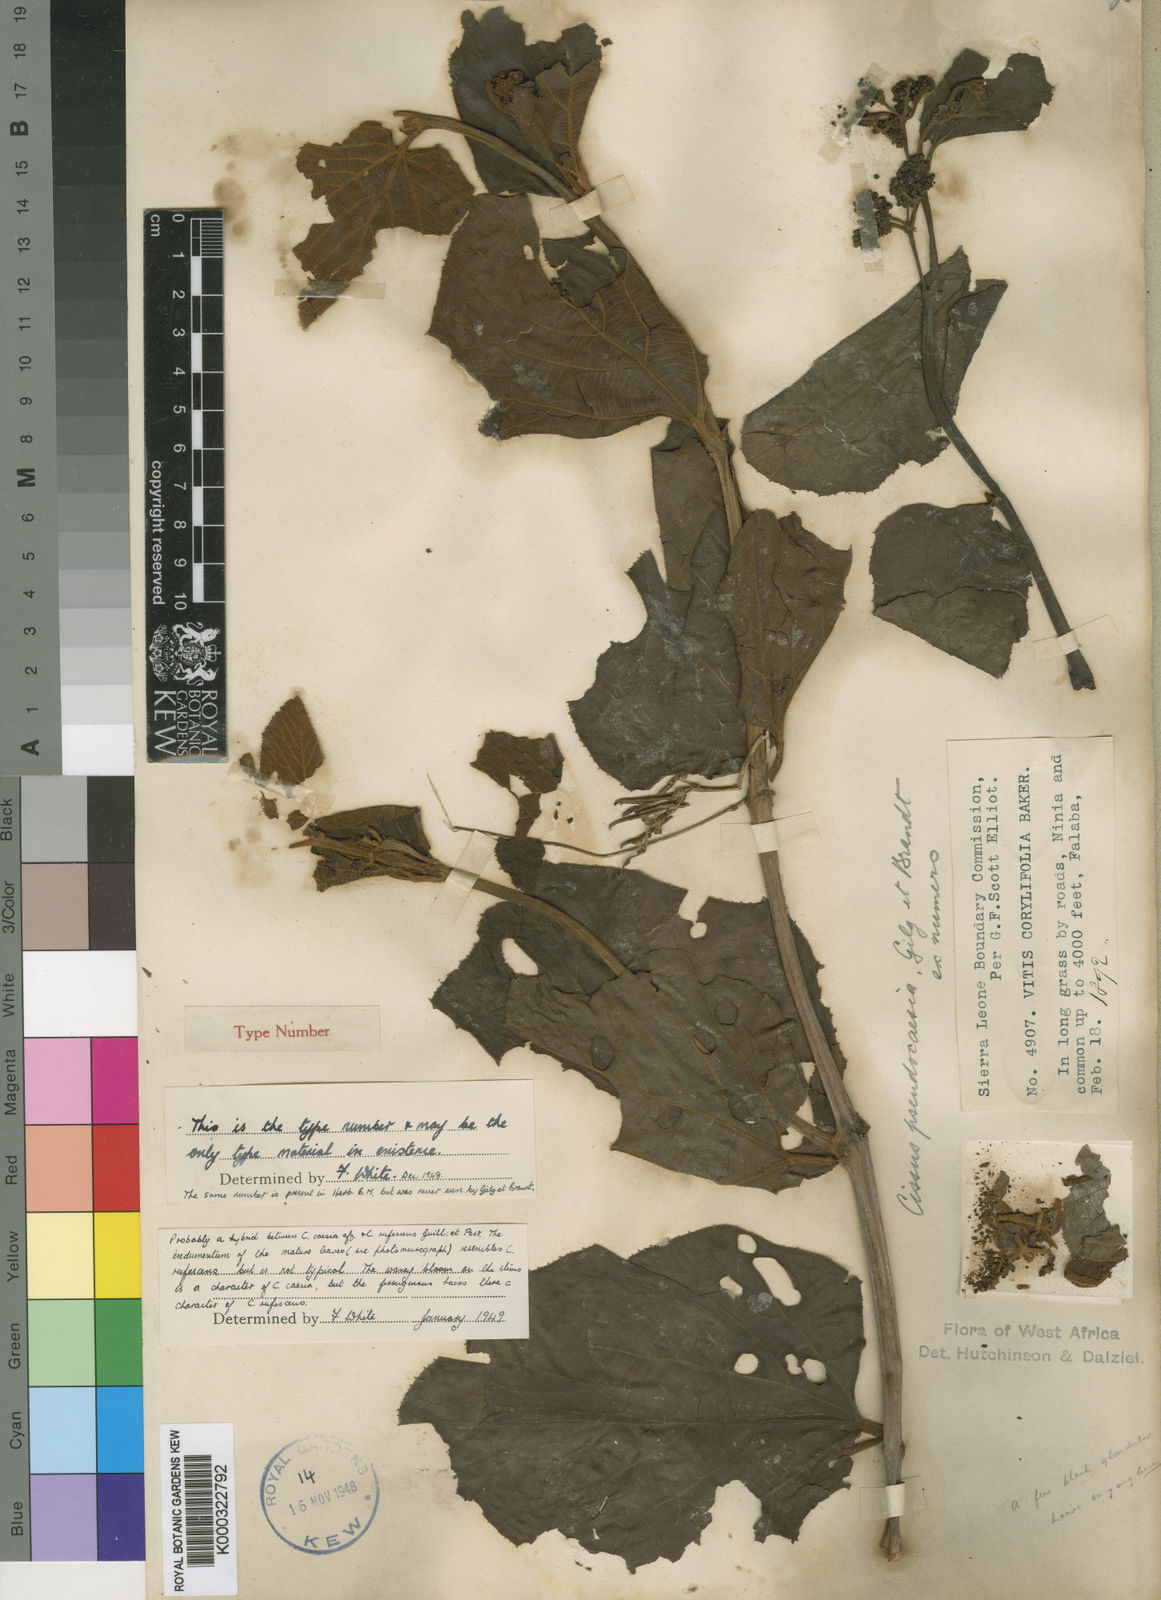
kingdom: Plantae
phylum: Tracheophyta
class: Magnoliopsida
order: Vitales
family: Vitaceae
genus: Cissus
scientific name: Cissus pseudocaesia
